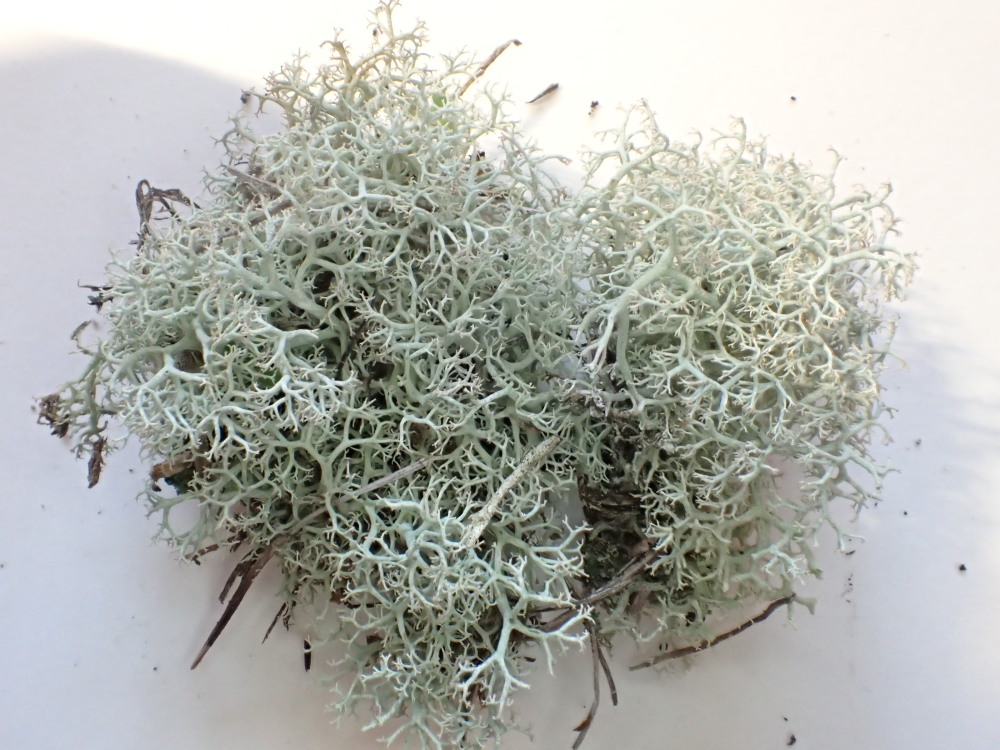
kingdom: Fungi
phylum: Ascomycota
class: Lecanoromycetes
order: Lecanorales
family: Cladoniaceae
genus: Cladonia
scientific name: Cladonia ciliata
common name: spinkel rensdyrlav
